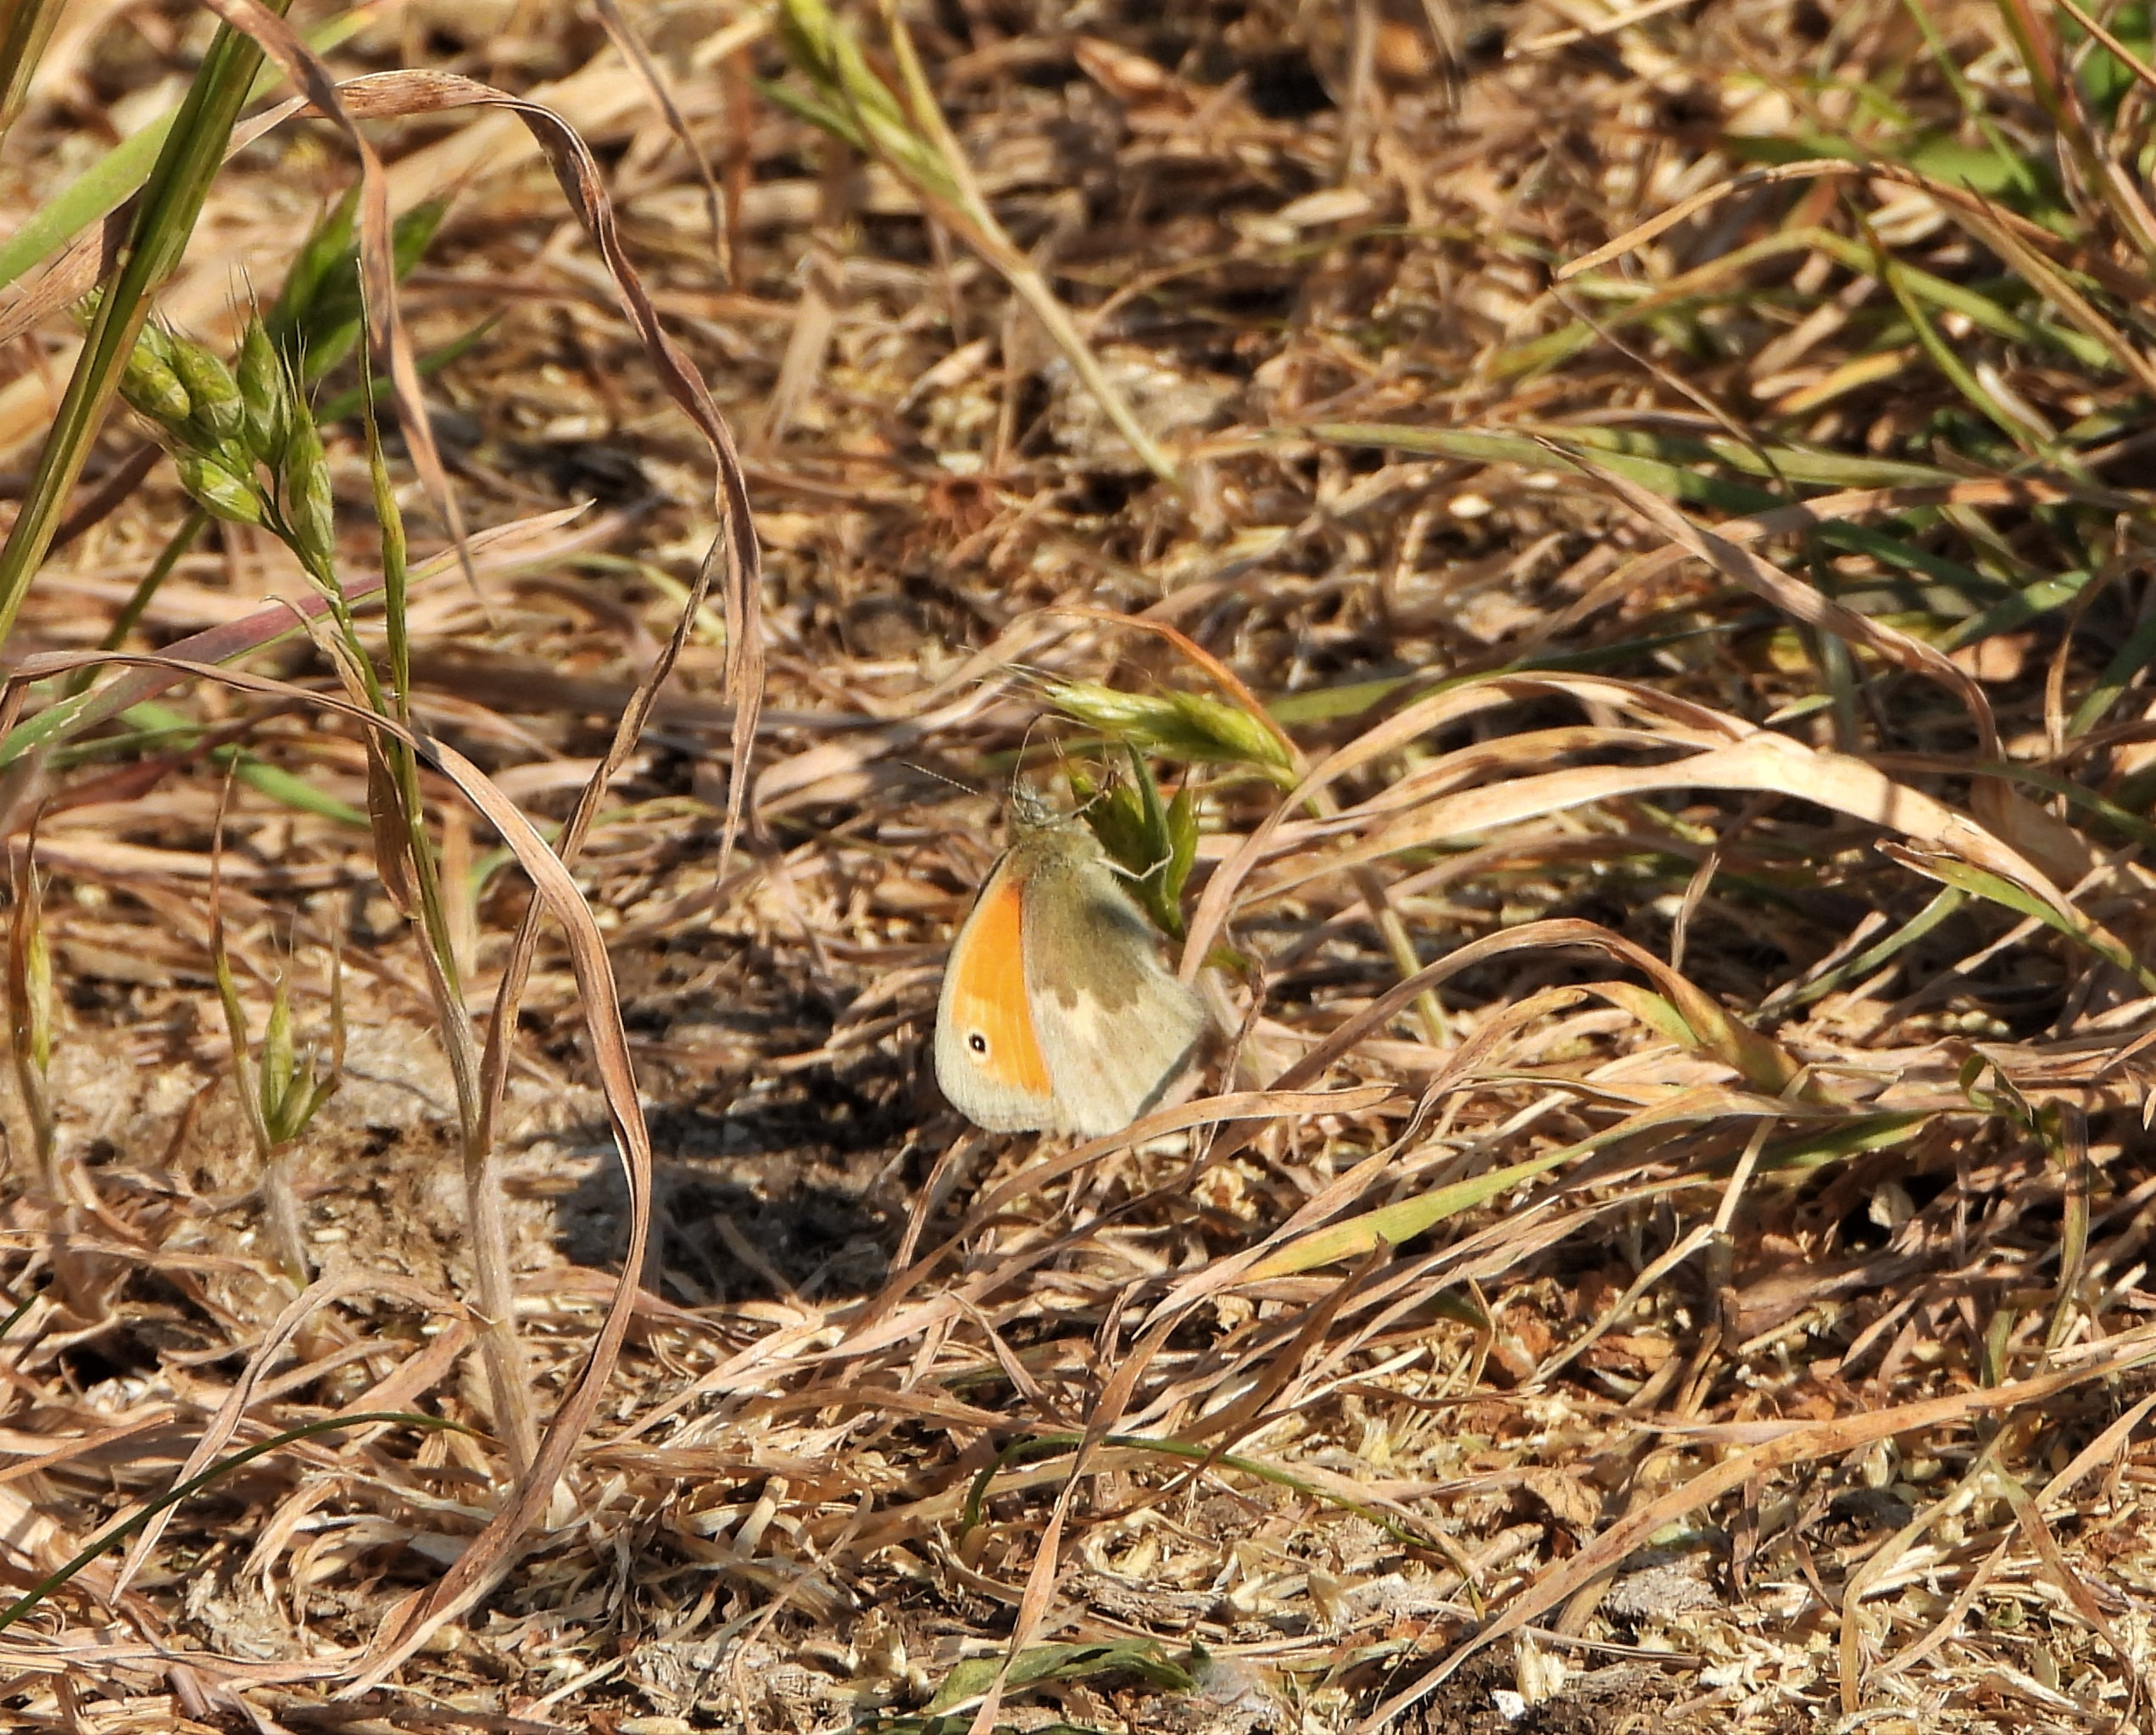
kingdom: Animalia
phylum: Arthropoda
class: Insecta
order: Lepidoptera
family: Nymphalidae
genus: Coenonympha
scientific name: Coenonympha pamphilus
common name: Okkergul randøje
